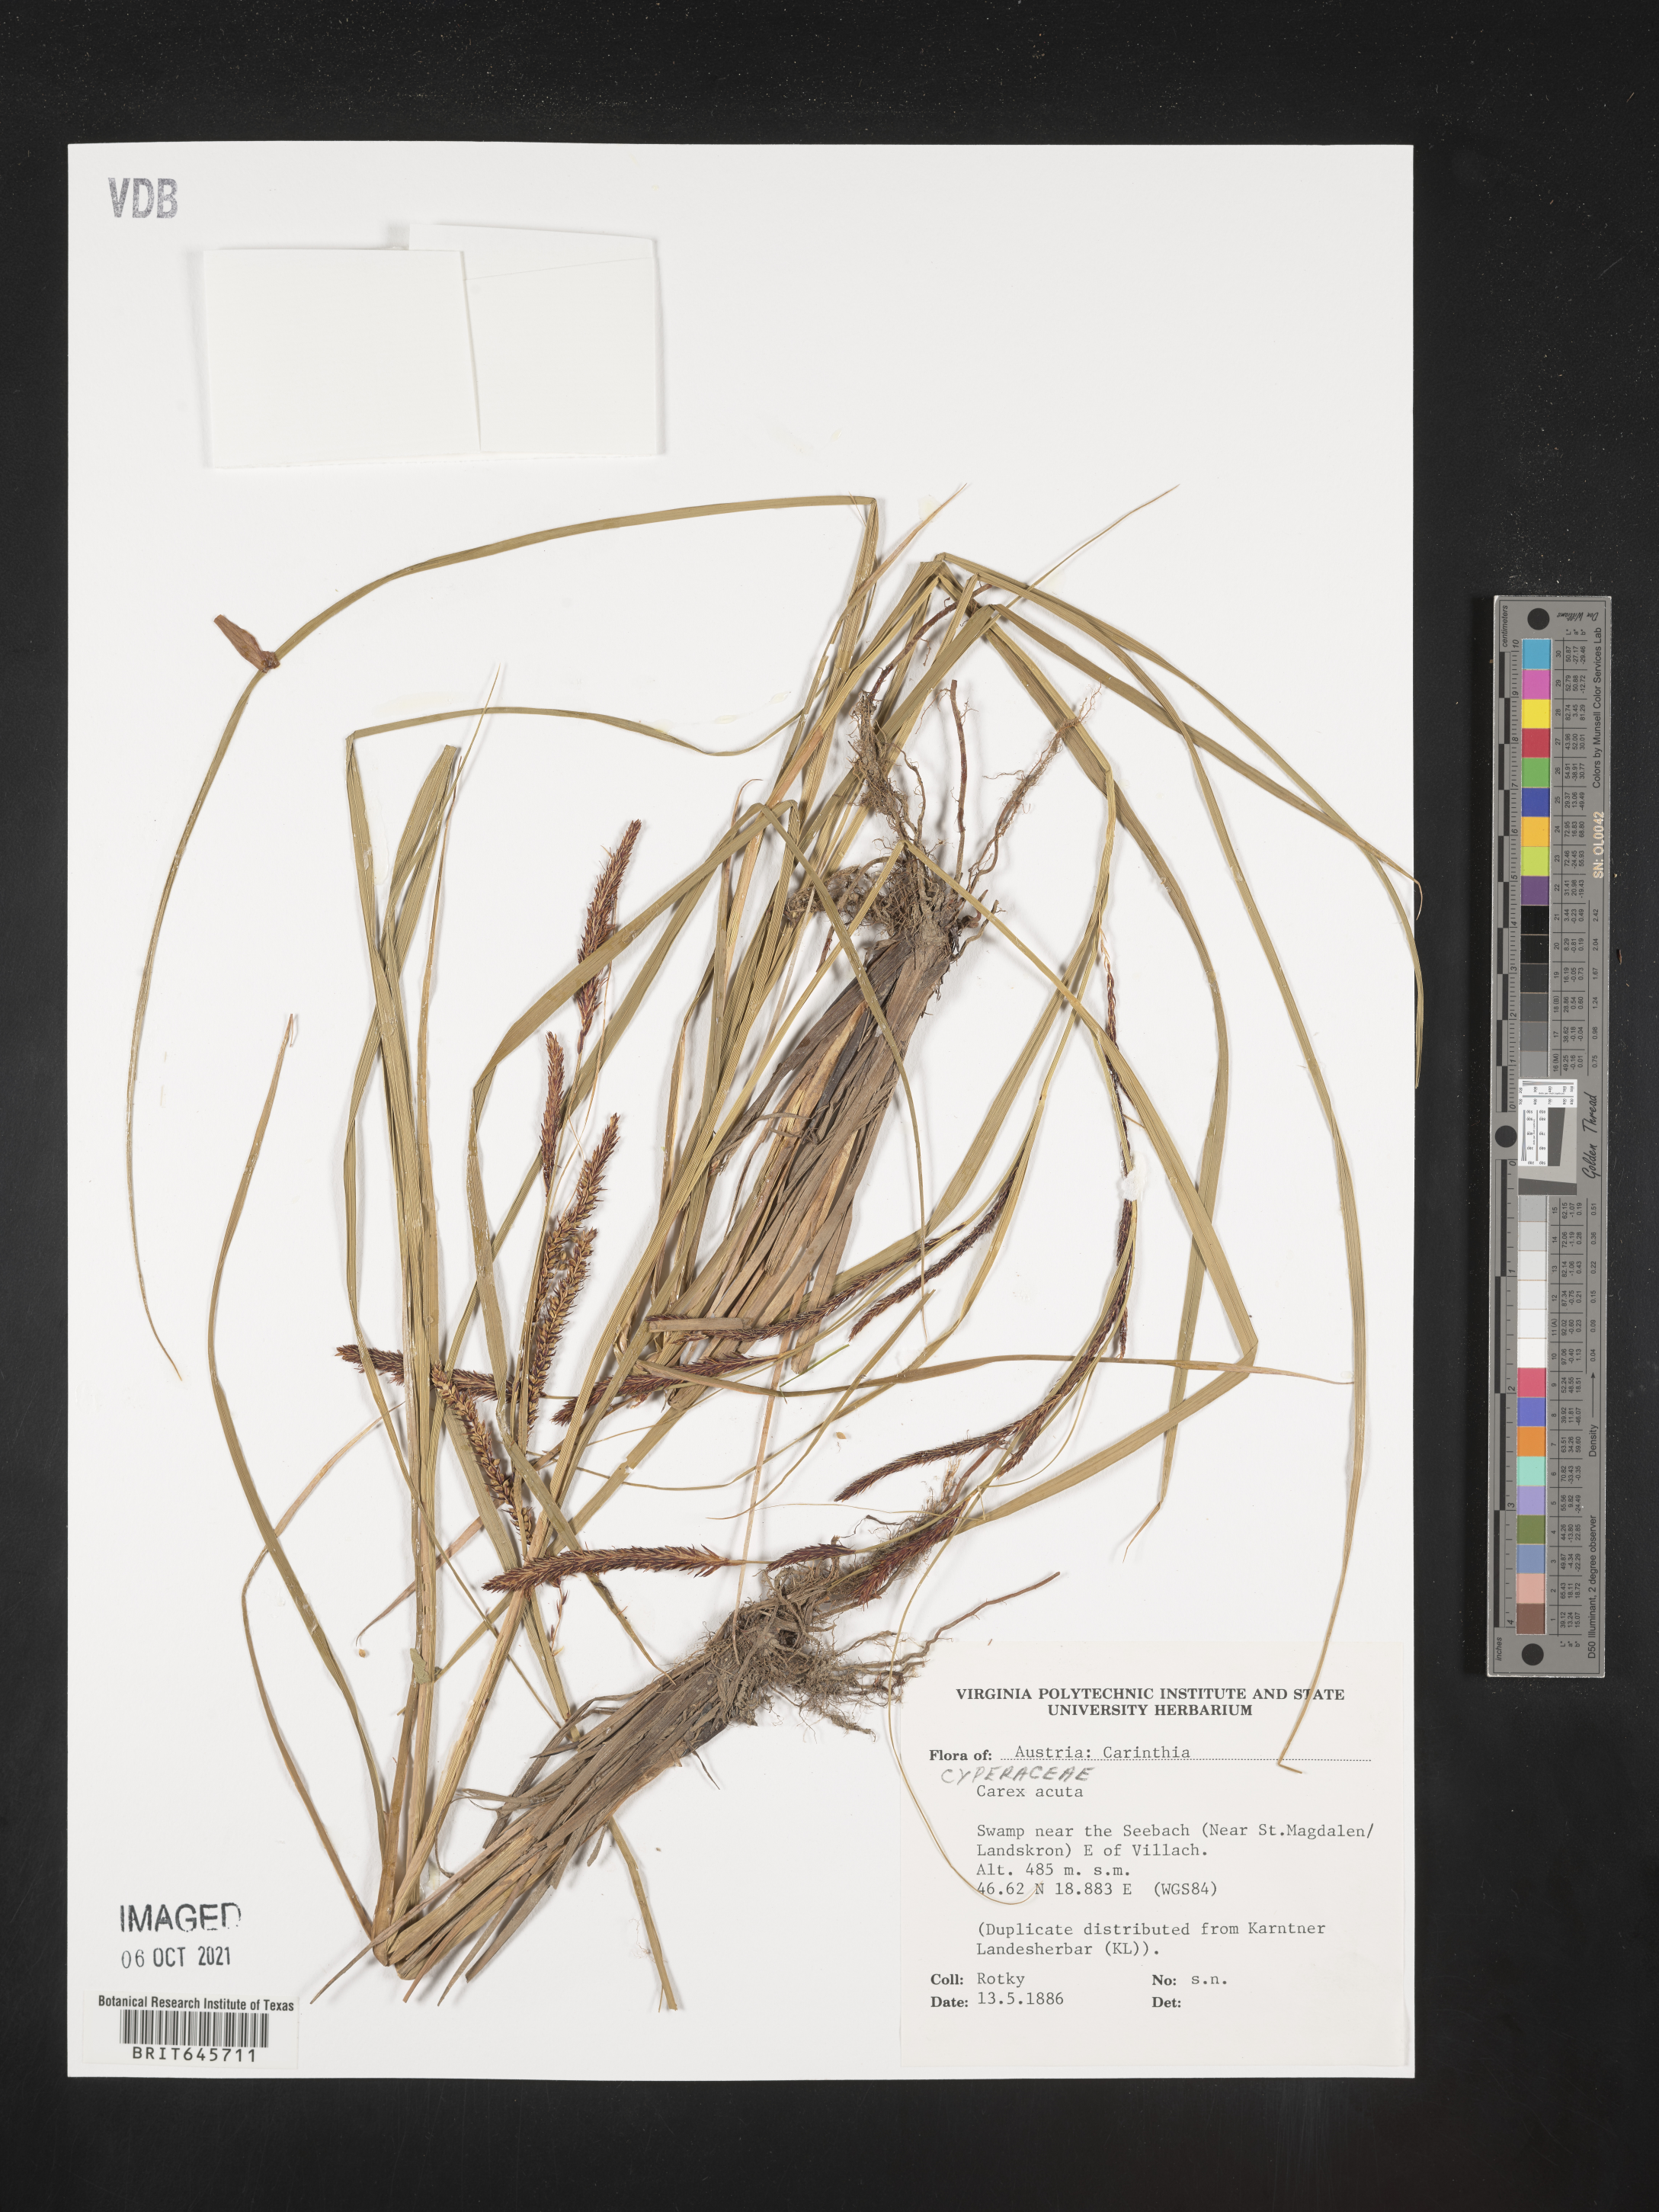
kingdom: Plantae
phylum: Tracheophyta
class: Liliopsida
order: Poales
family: Cyperaceae
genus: Carex
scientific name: Carex acuta
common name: Slender tufted-sedge
